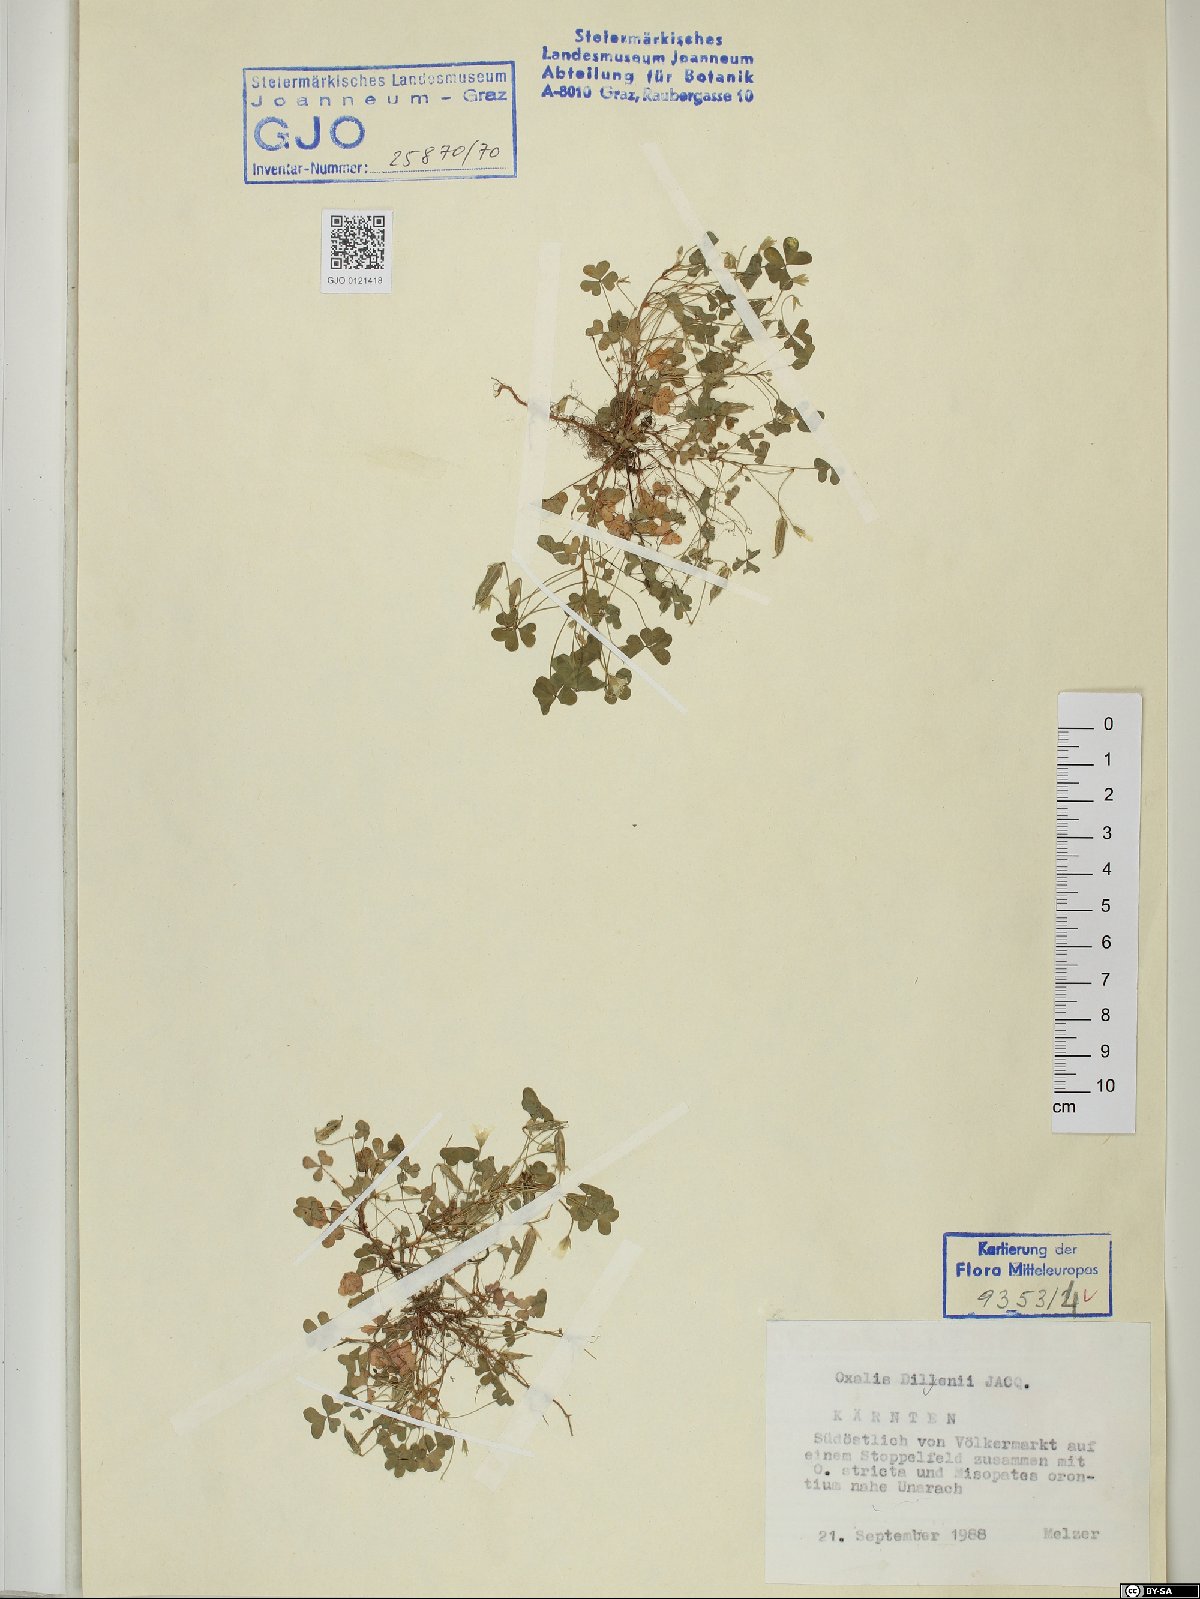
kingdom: Plantae
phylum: Tracheophyta
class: Magnoliopsida
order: Oxalidales
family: Oxalidaceae
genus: Oxalis
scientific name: Oxalis dillenii
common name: Sussex yellow-sorrel
